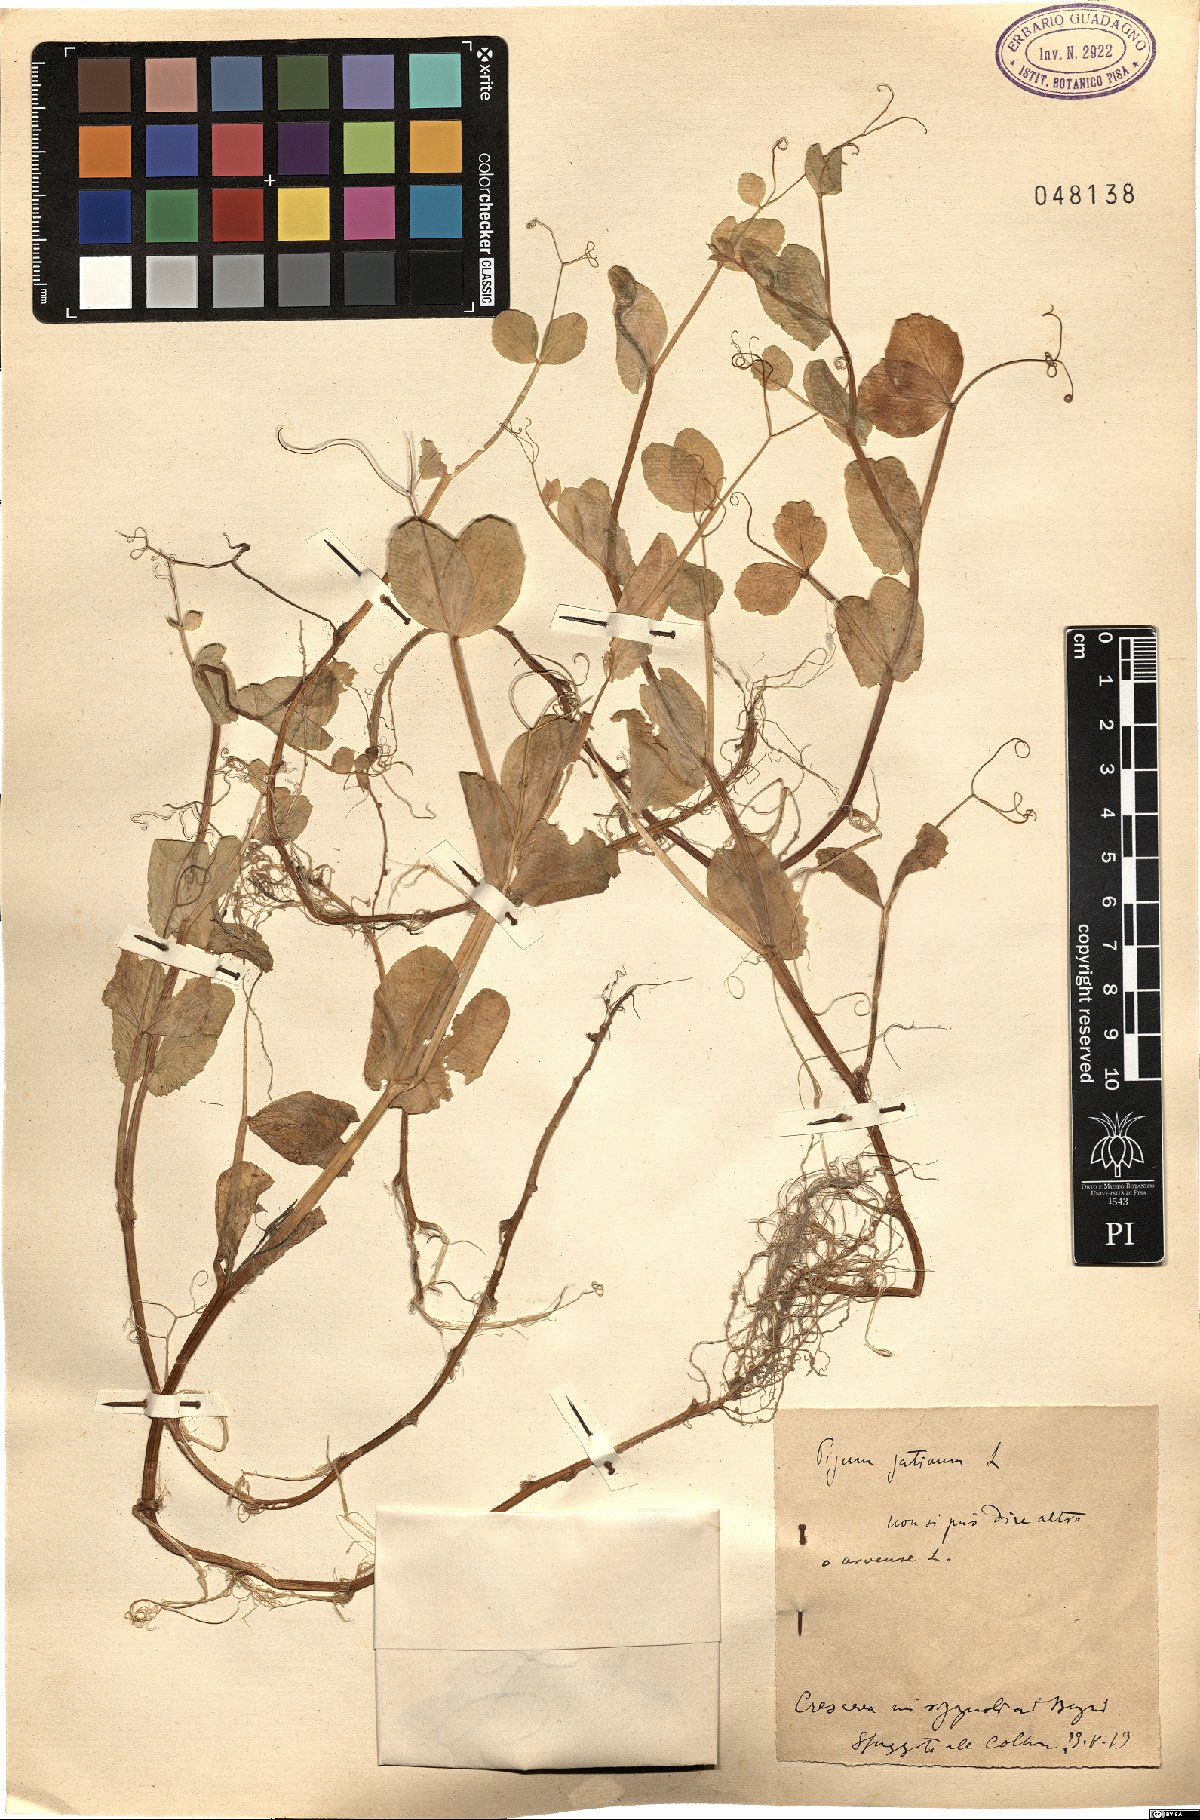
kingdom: Plantae
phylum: Tracheophyta
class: Magnoliopsida
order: Fabales
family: Fabaceae
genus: Lathyrus
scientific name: Lathyrus oleraceus
